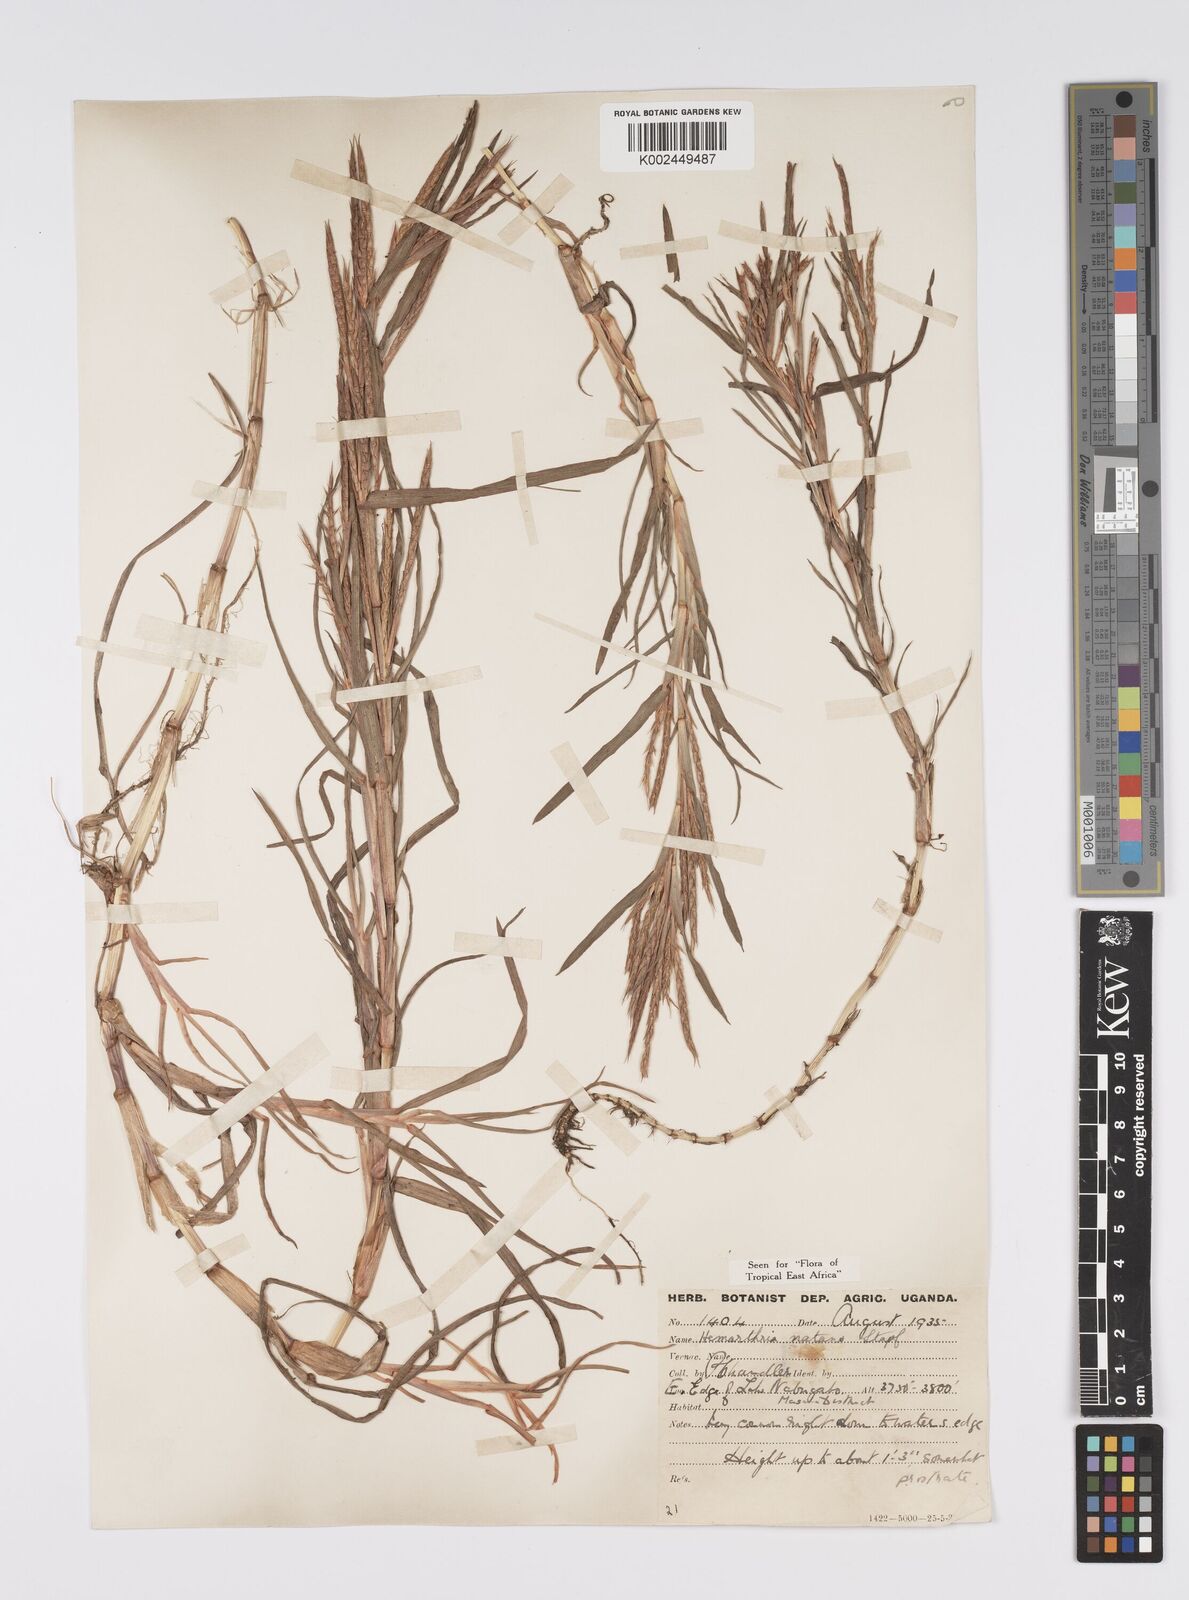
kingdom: Plantae
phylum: Tracheophyta
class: Liliopsida
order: Poales
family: Poaceae
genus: Hemarthria
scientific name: Hemarthria natans
